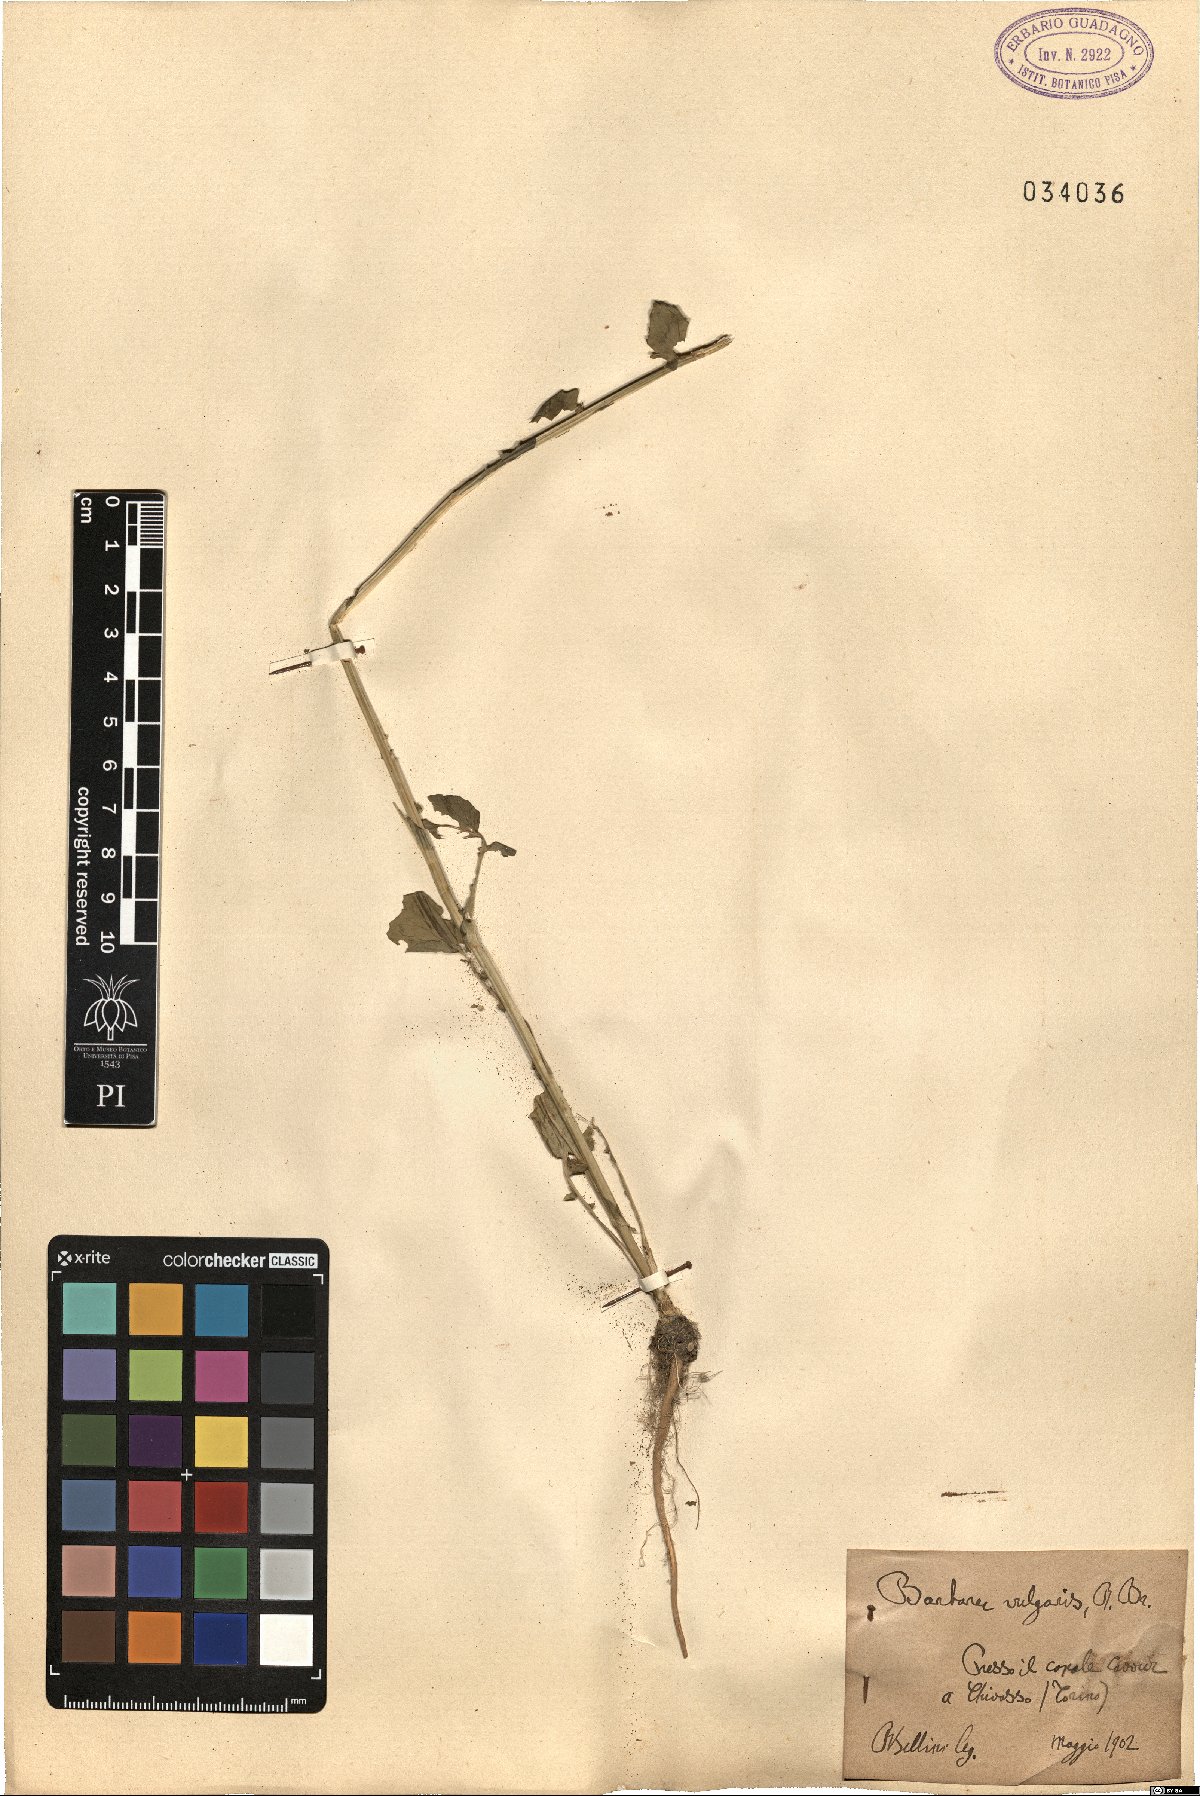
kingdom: Plantae
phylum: Tracheophyta
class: Magnoliopsida
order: Brassicales
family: Brassicaceae
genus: Barbarea
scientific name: Barbarea vulgaris
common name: Cressy-greens
